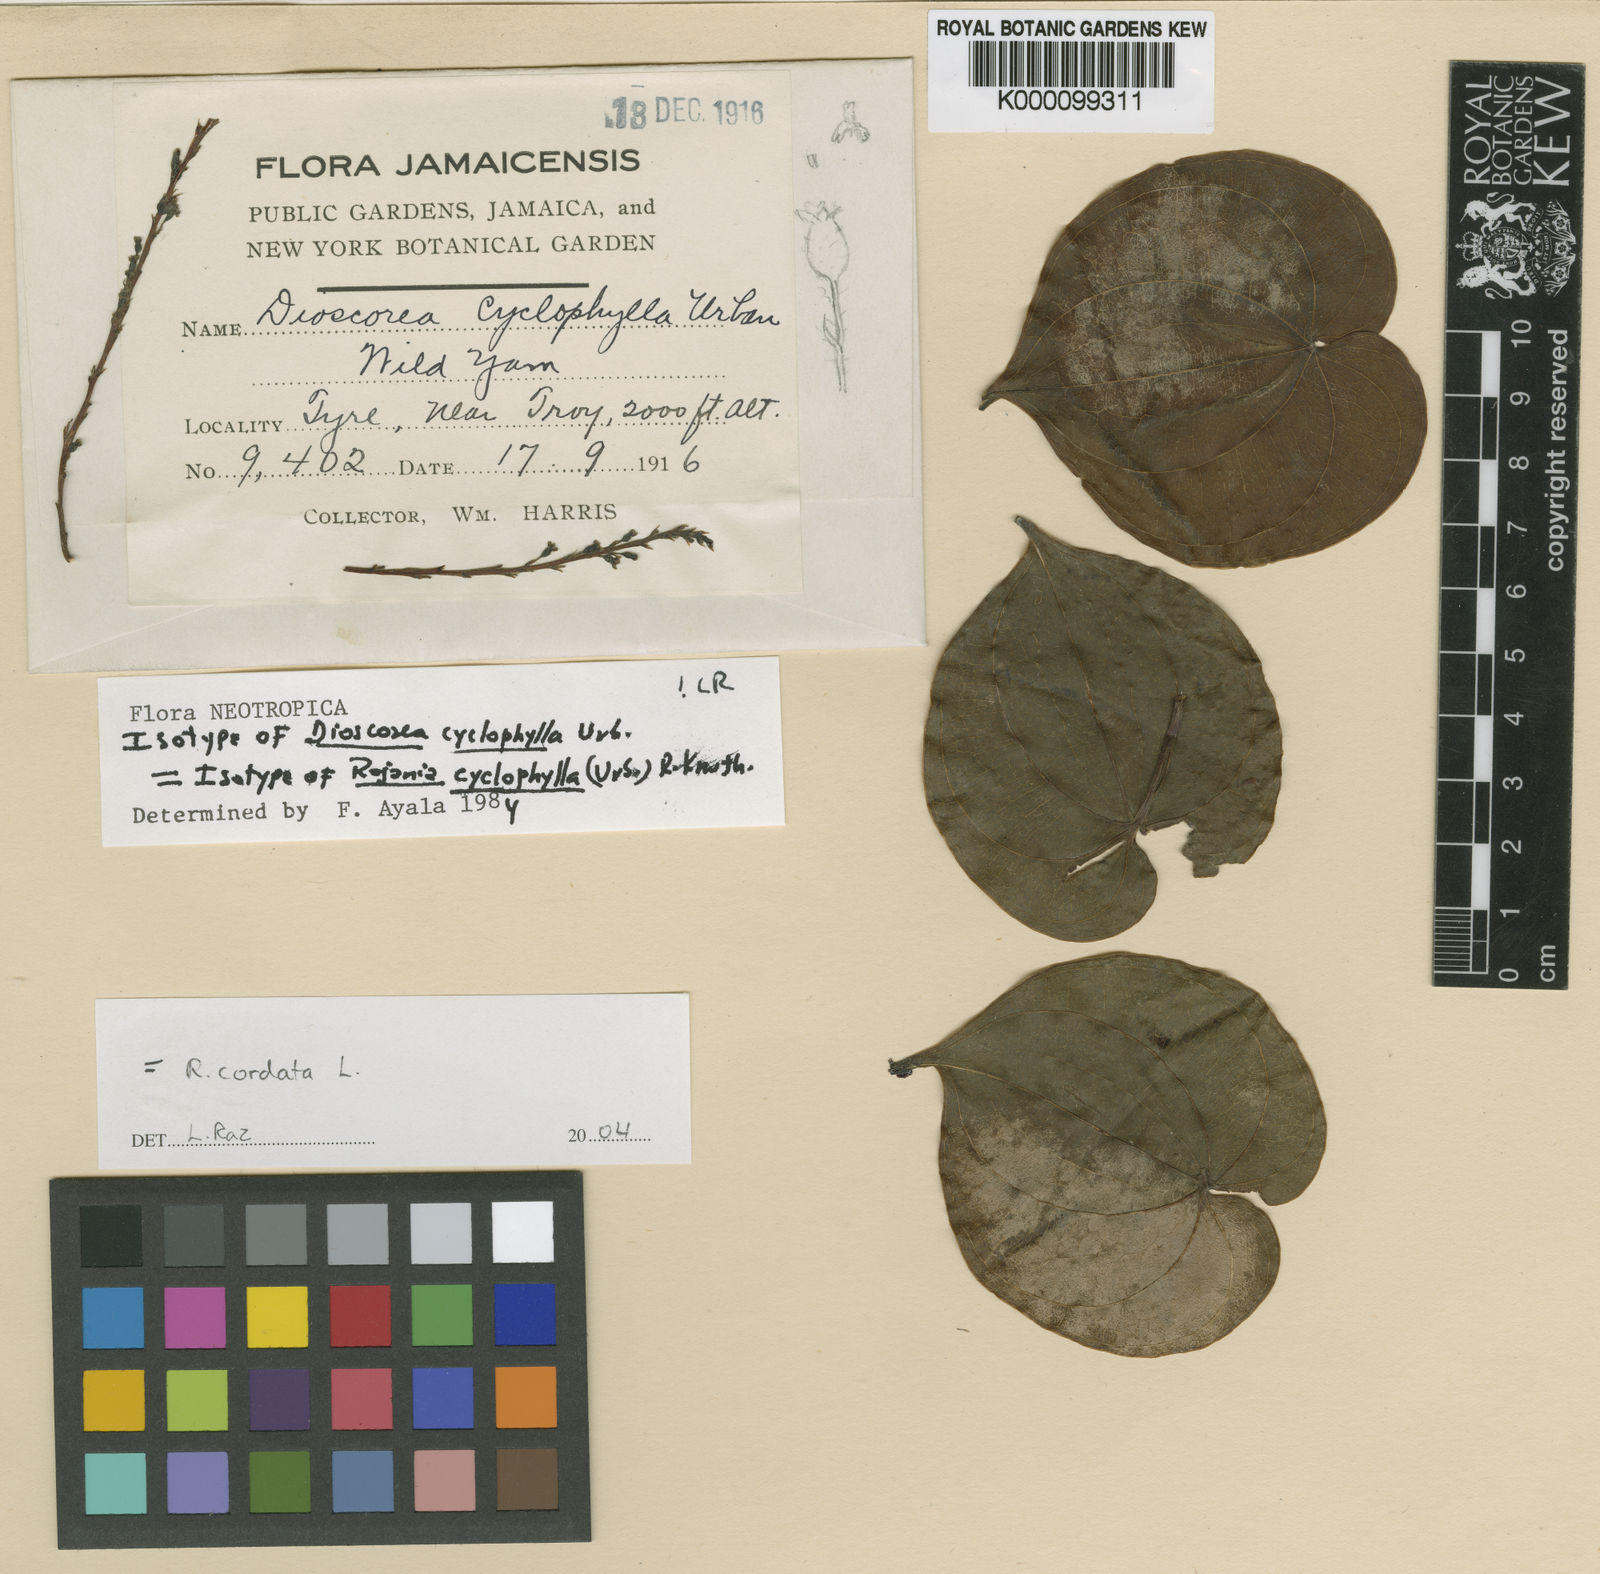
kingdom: Plantae
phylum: Tracheophyta
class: Liliopsida
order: Dioscoreales
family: Dioscoreaceae
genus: Dioscorea
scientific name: Dioscorea cordata
